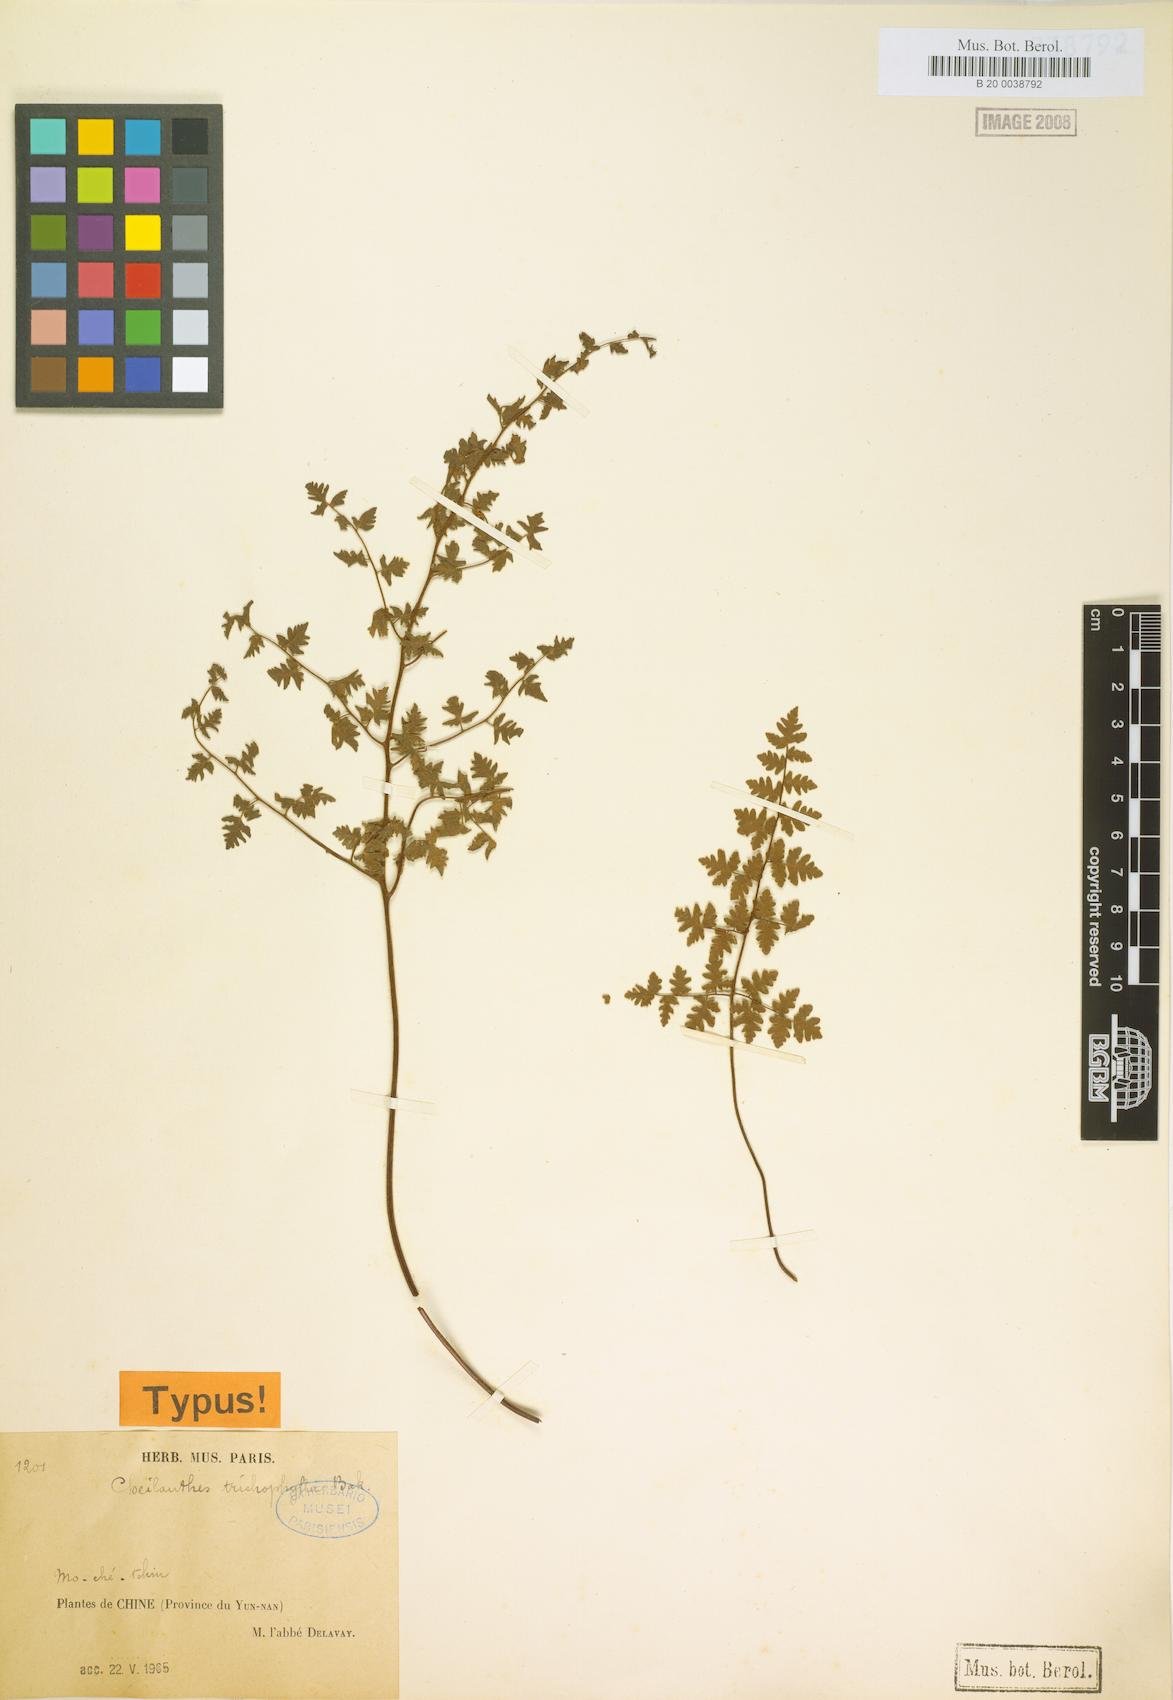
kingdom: Plantae
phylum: Tracheophyta
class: Polypodiopsida
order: Polypodiales
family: Pteridaceae
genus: Oeosporangium
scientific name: Oeosporangium trichophyllum
